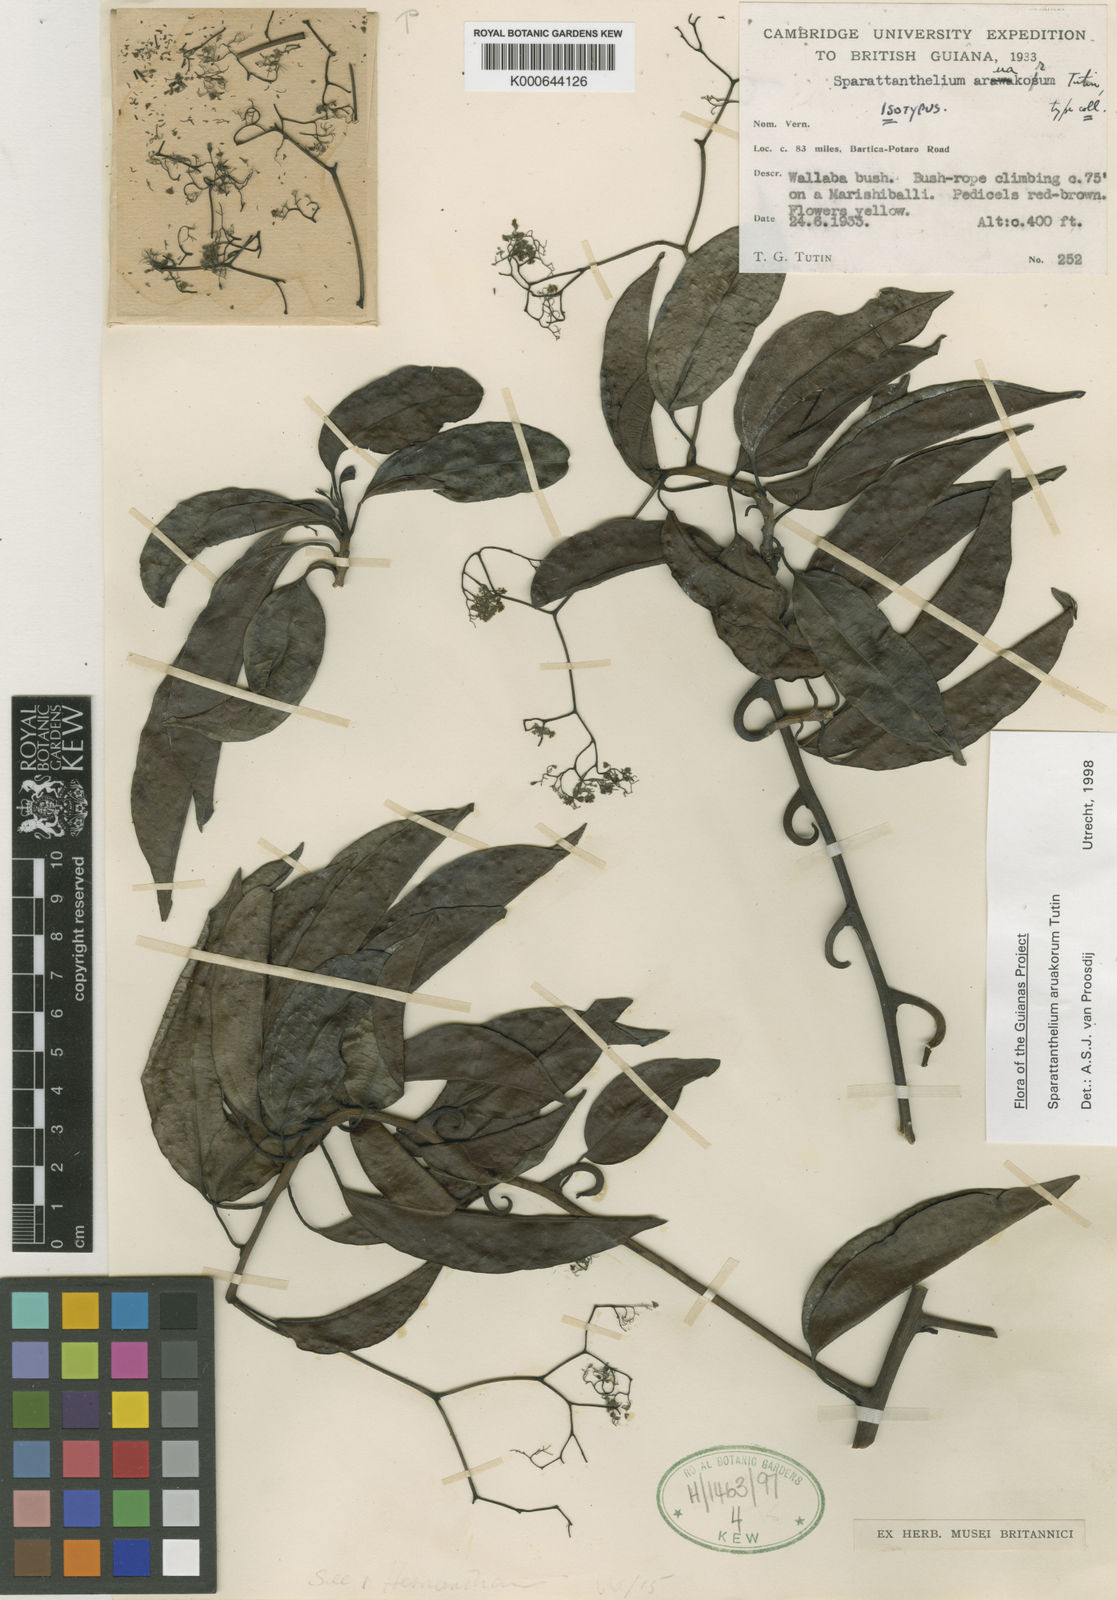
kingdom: Plantae
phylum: Tracheophyta
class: Magnoliopsida
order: Laurales
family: Hernandiaceae
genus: Sparattanthelium
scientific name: Sparattanthelium aruakorum
